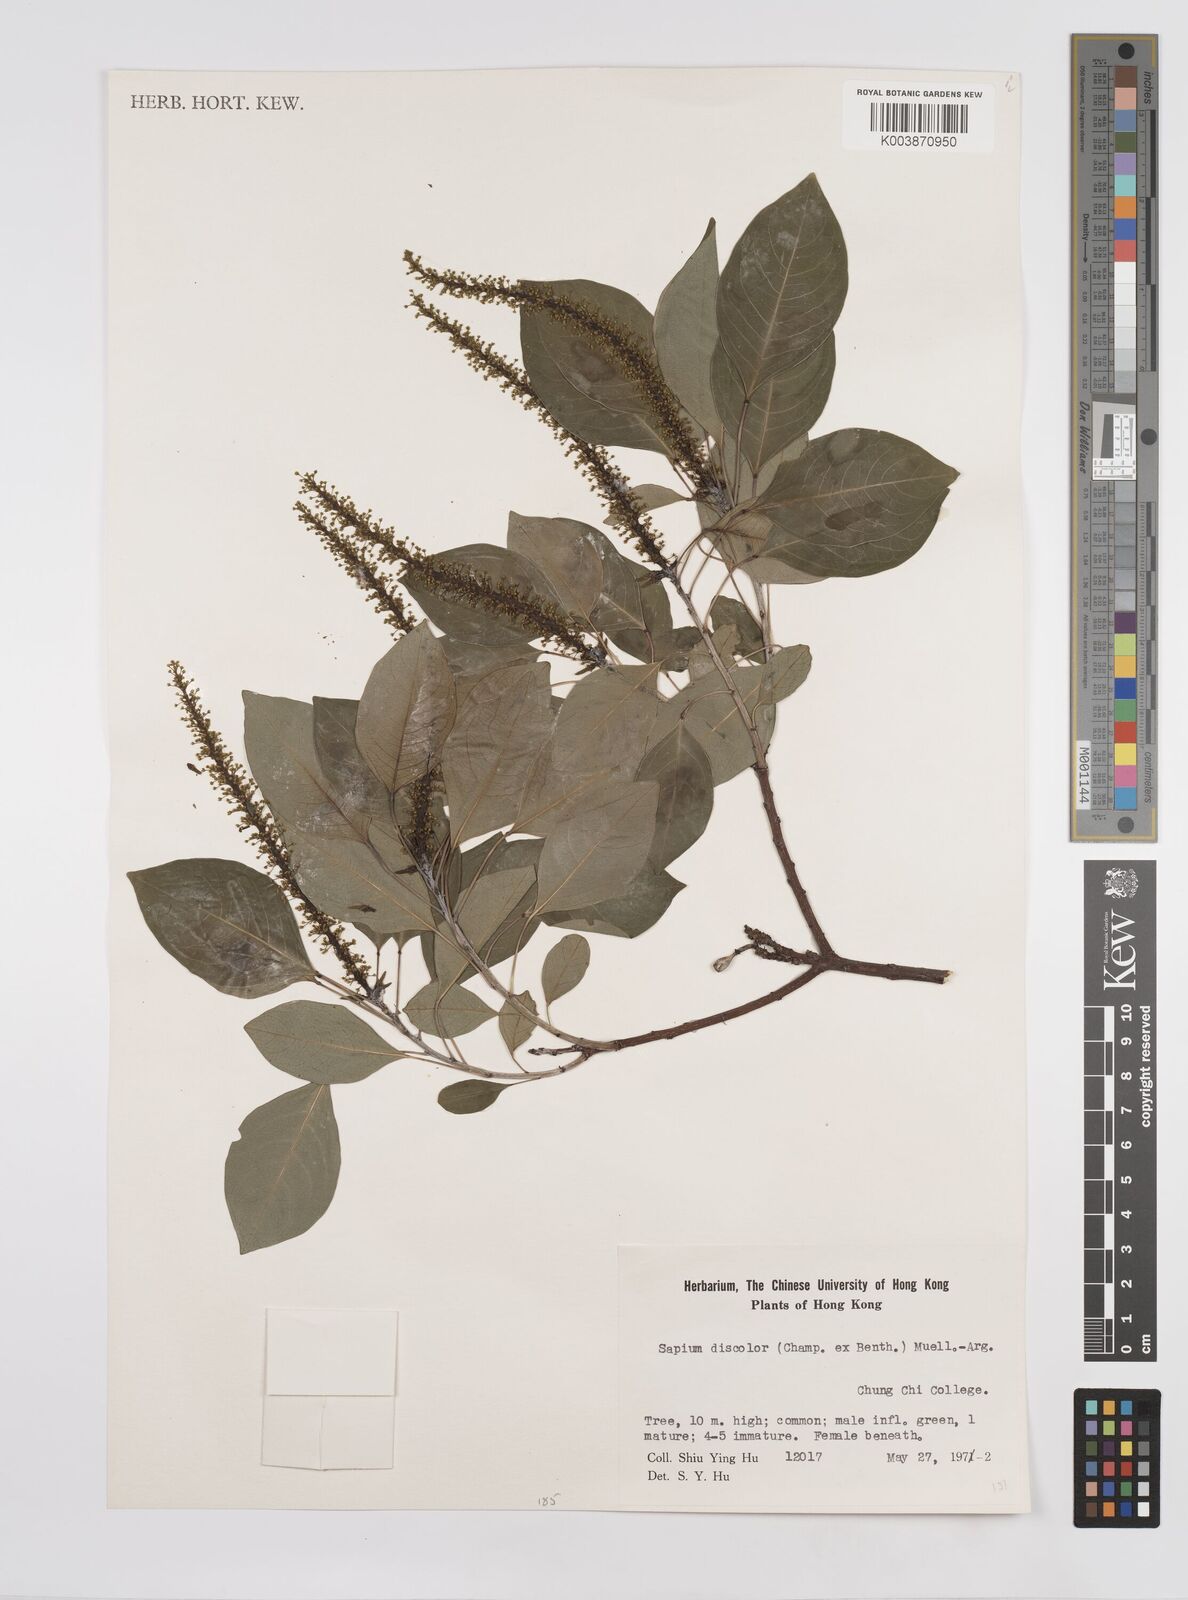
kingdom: Plantae
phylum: Tracheophyta
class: Magnoliopsida
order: Malpighiales
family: Euphorbiaceae
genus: Triadica
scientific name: Triadica cochinchinensis
